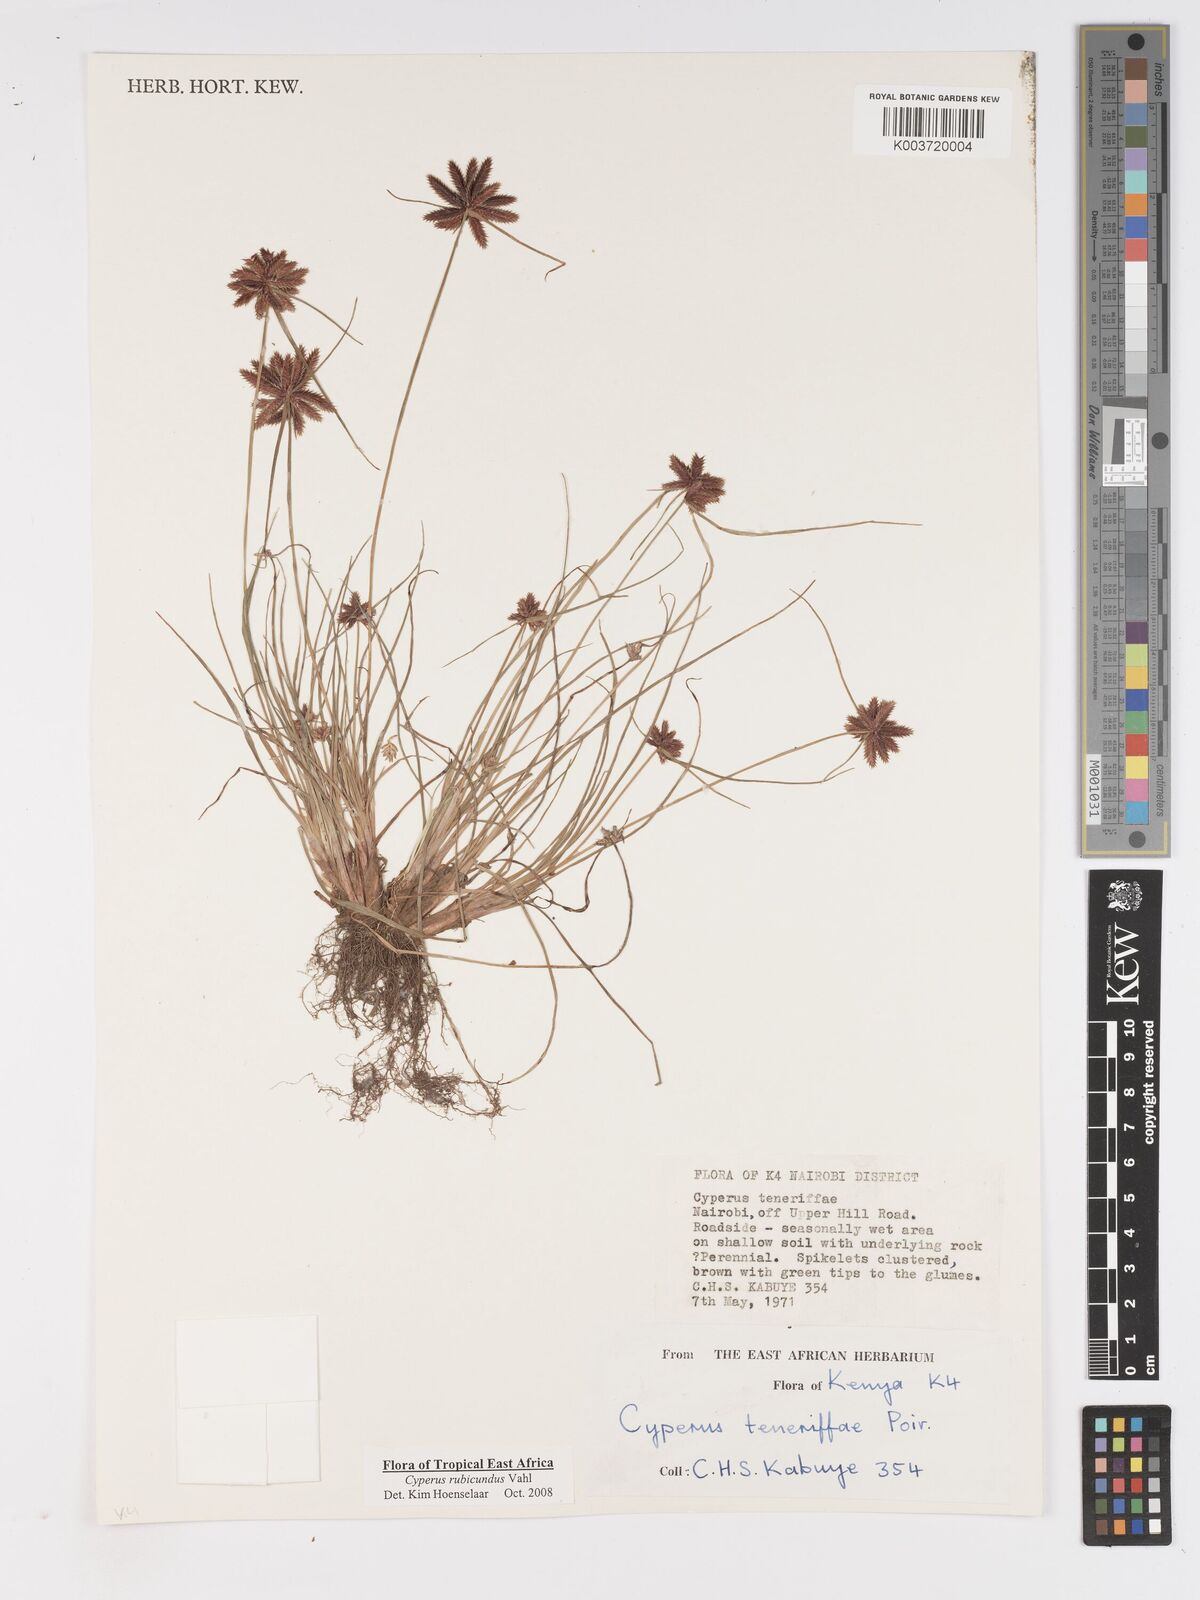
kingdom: Plantae
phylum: Tracheophyta
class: Liliopsida
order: Poales
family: Cyperaceae
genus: Cyperus
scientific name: Cyperus rubicundus
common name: Coco-grass
